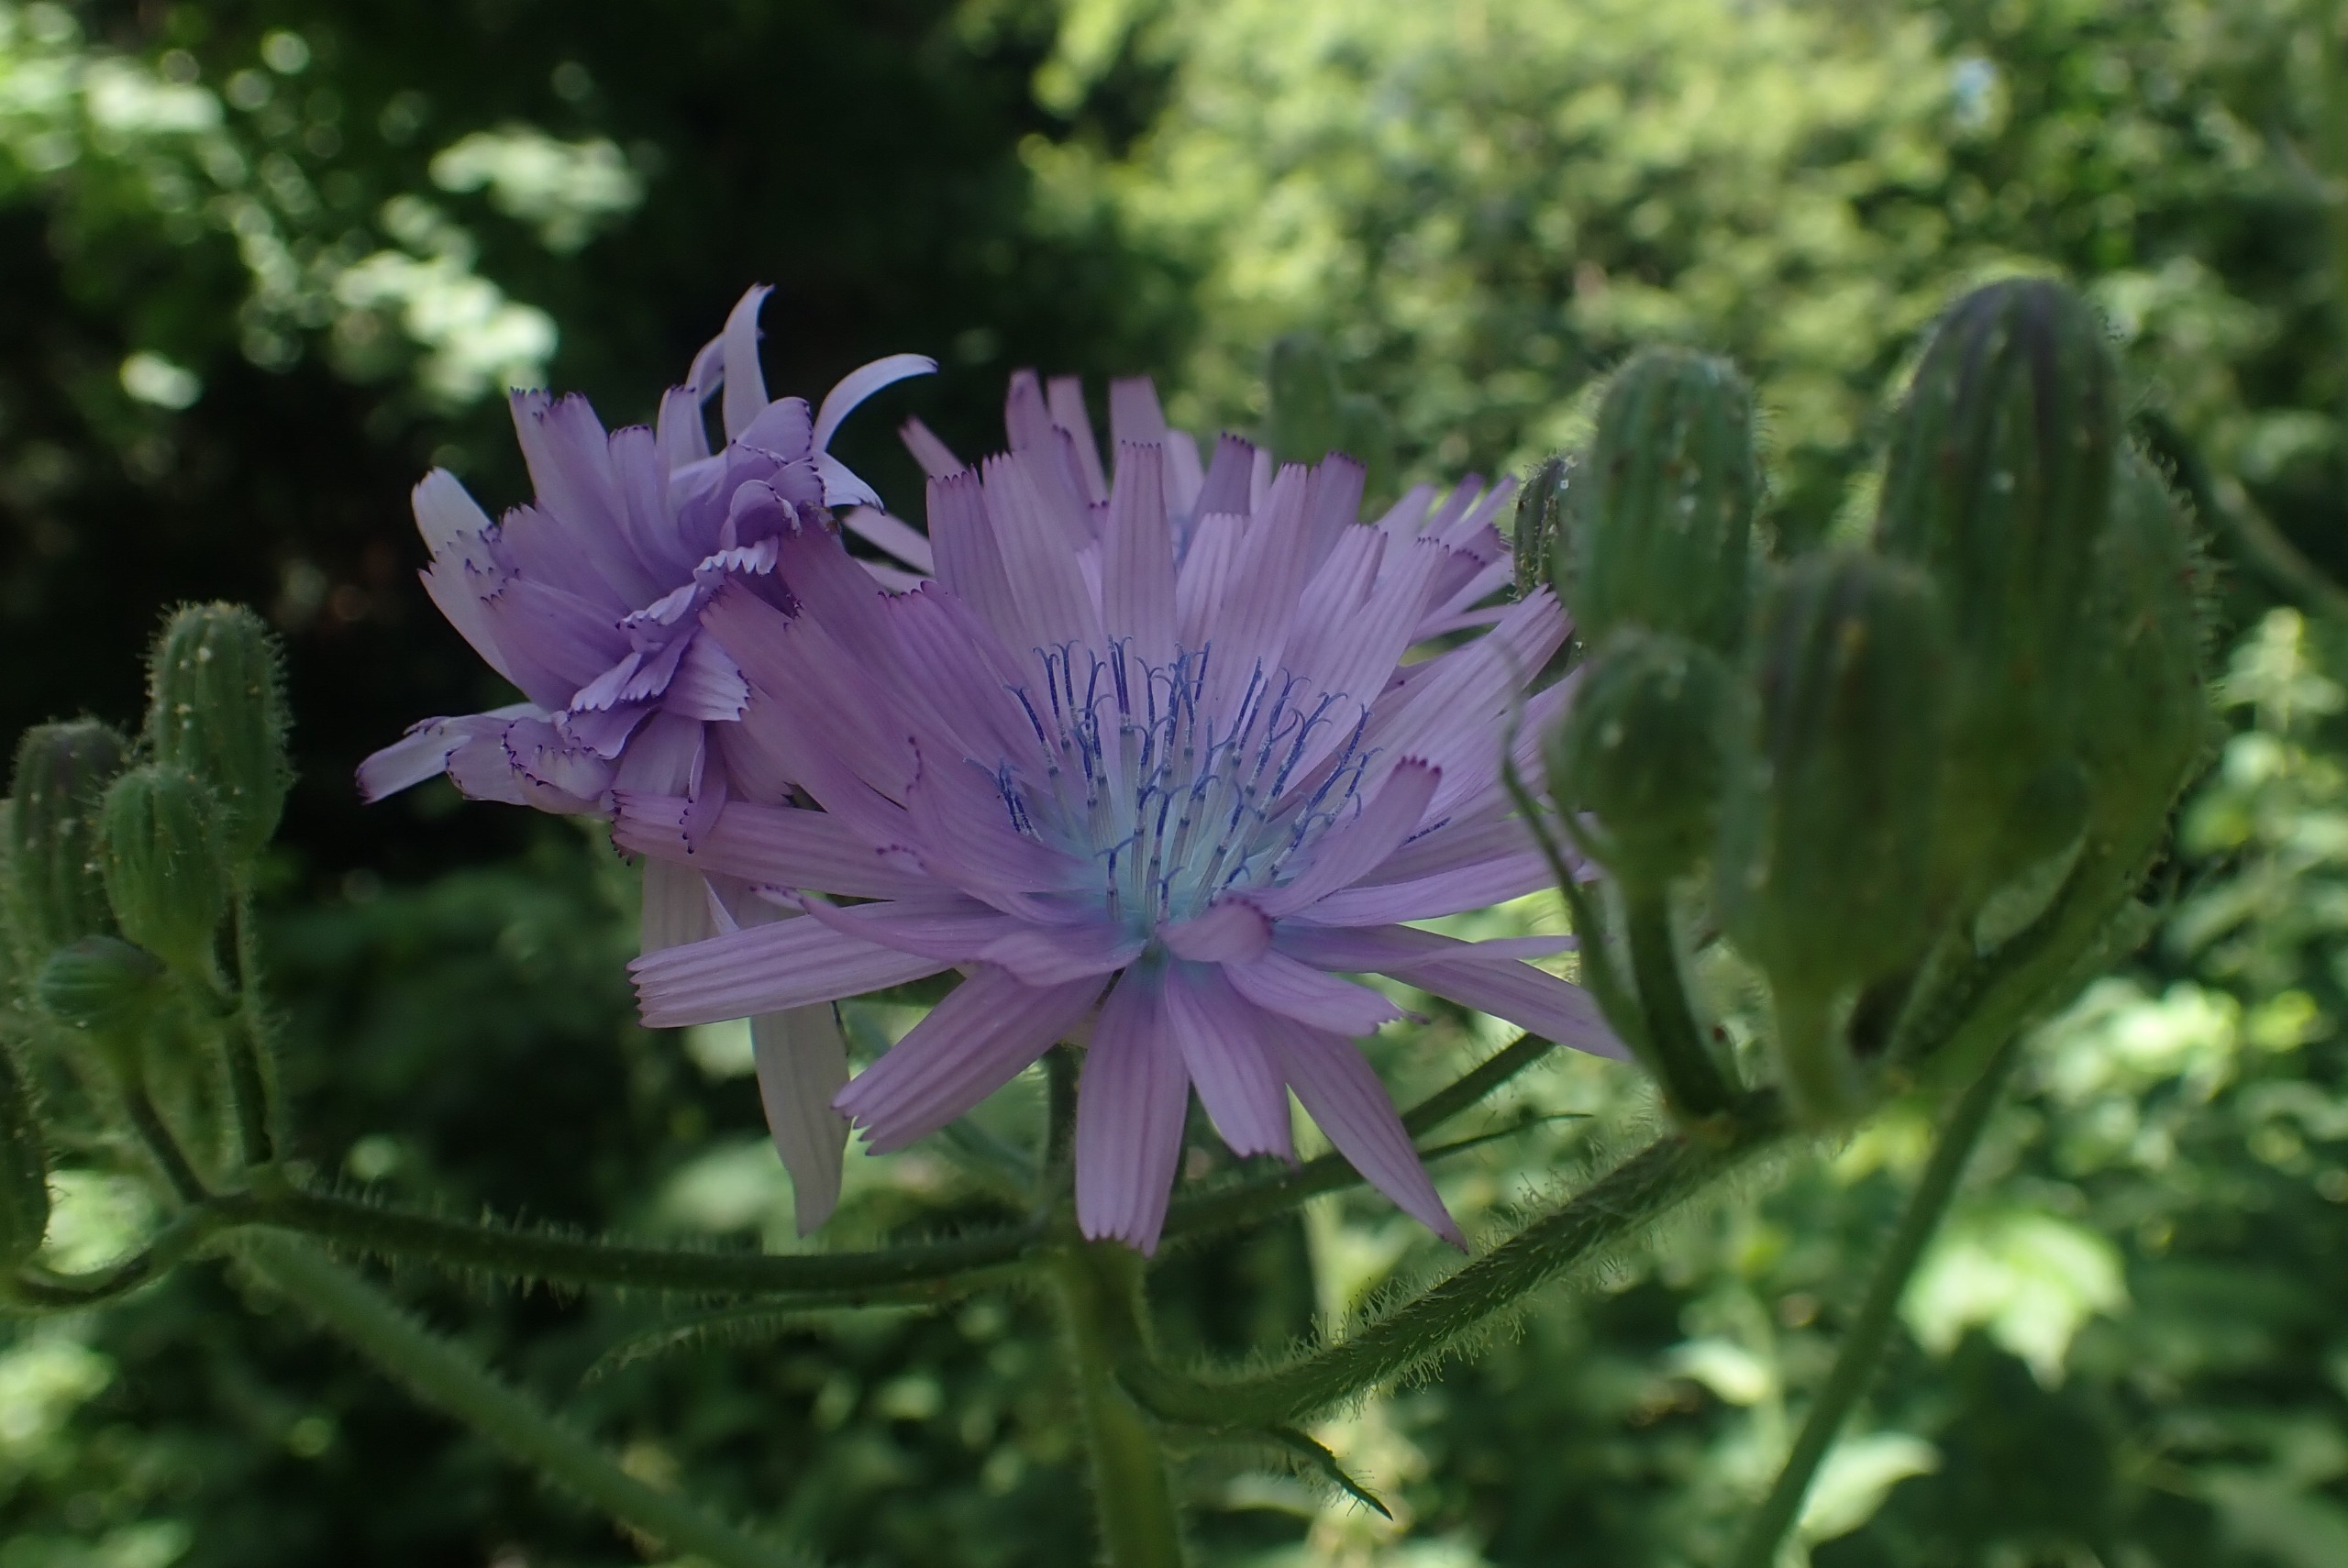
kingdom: Plantae
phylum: Tracheophyta
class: Magnoliopsida
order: Asterales
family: Asteraceae
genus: Lactuca
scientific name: Lactuca macrophylla
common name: Kæmpe-salat
